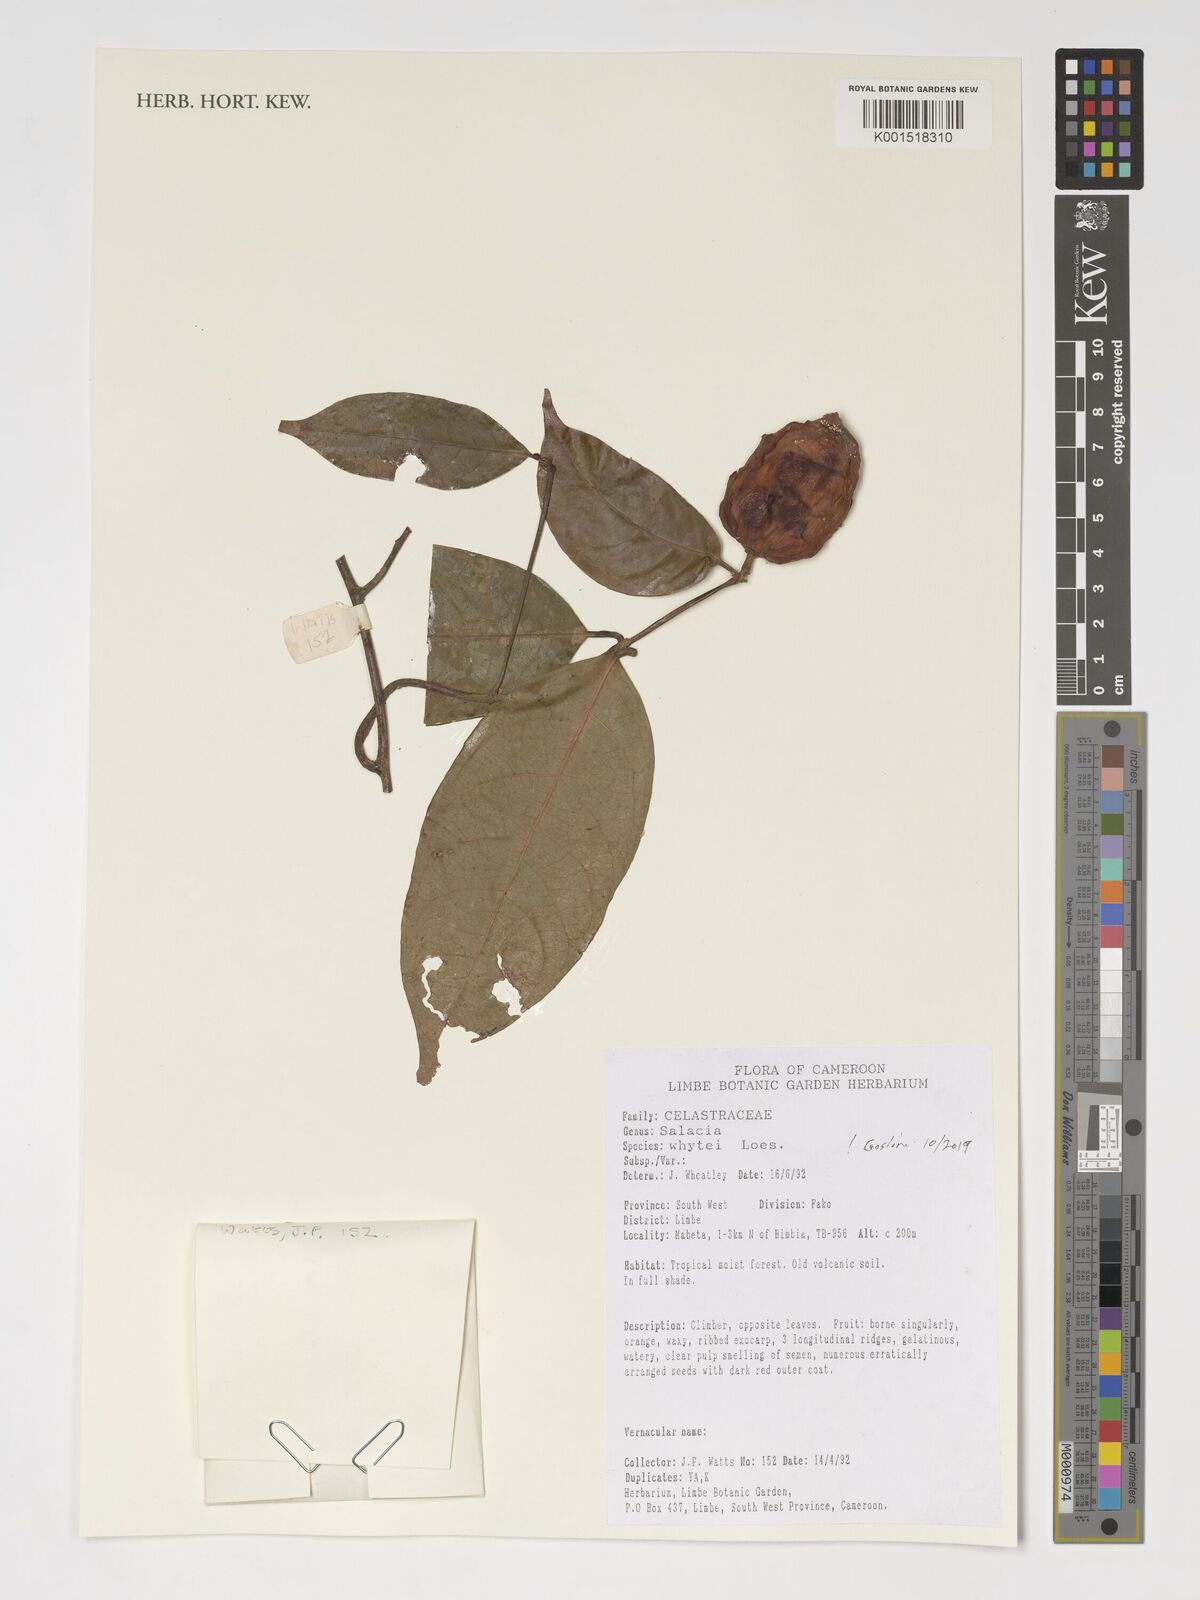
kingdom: Plantae
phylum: Tracheophyta
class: Magnoliopsida
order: Celastrales
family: Celastraceae
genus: Salacia
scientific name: Salacia whytei
